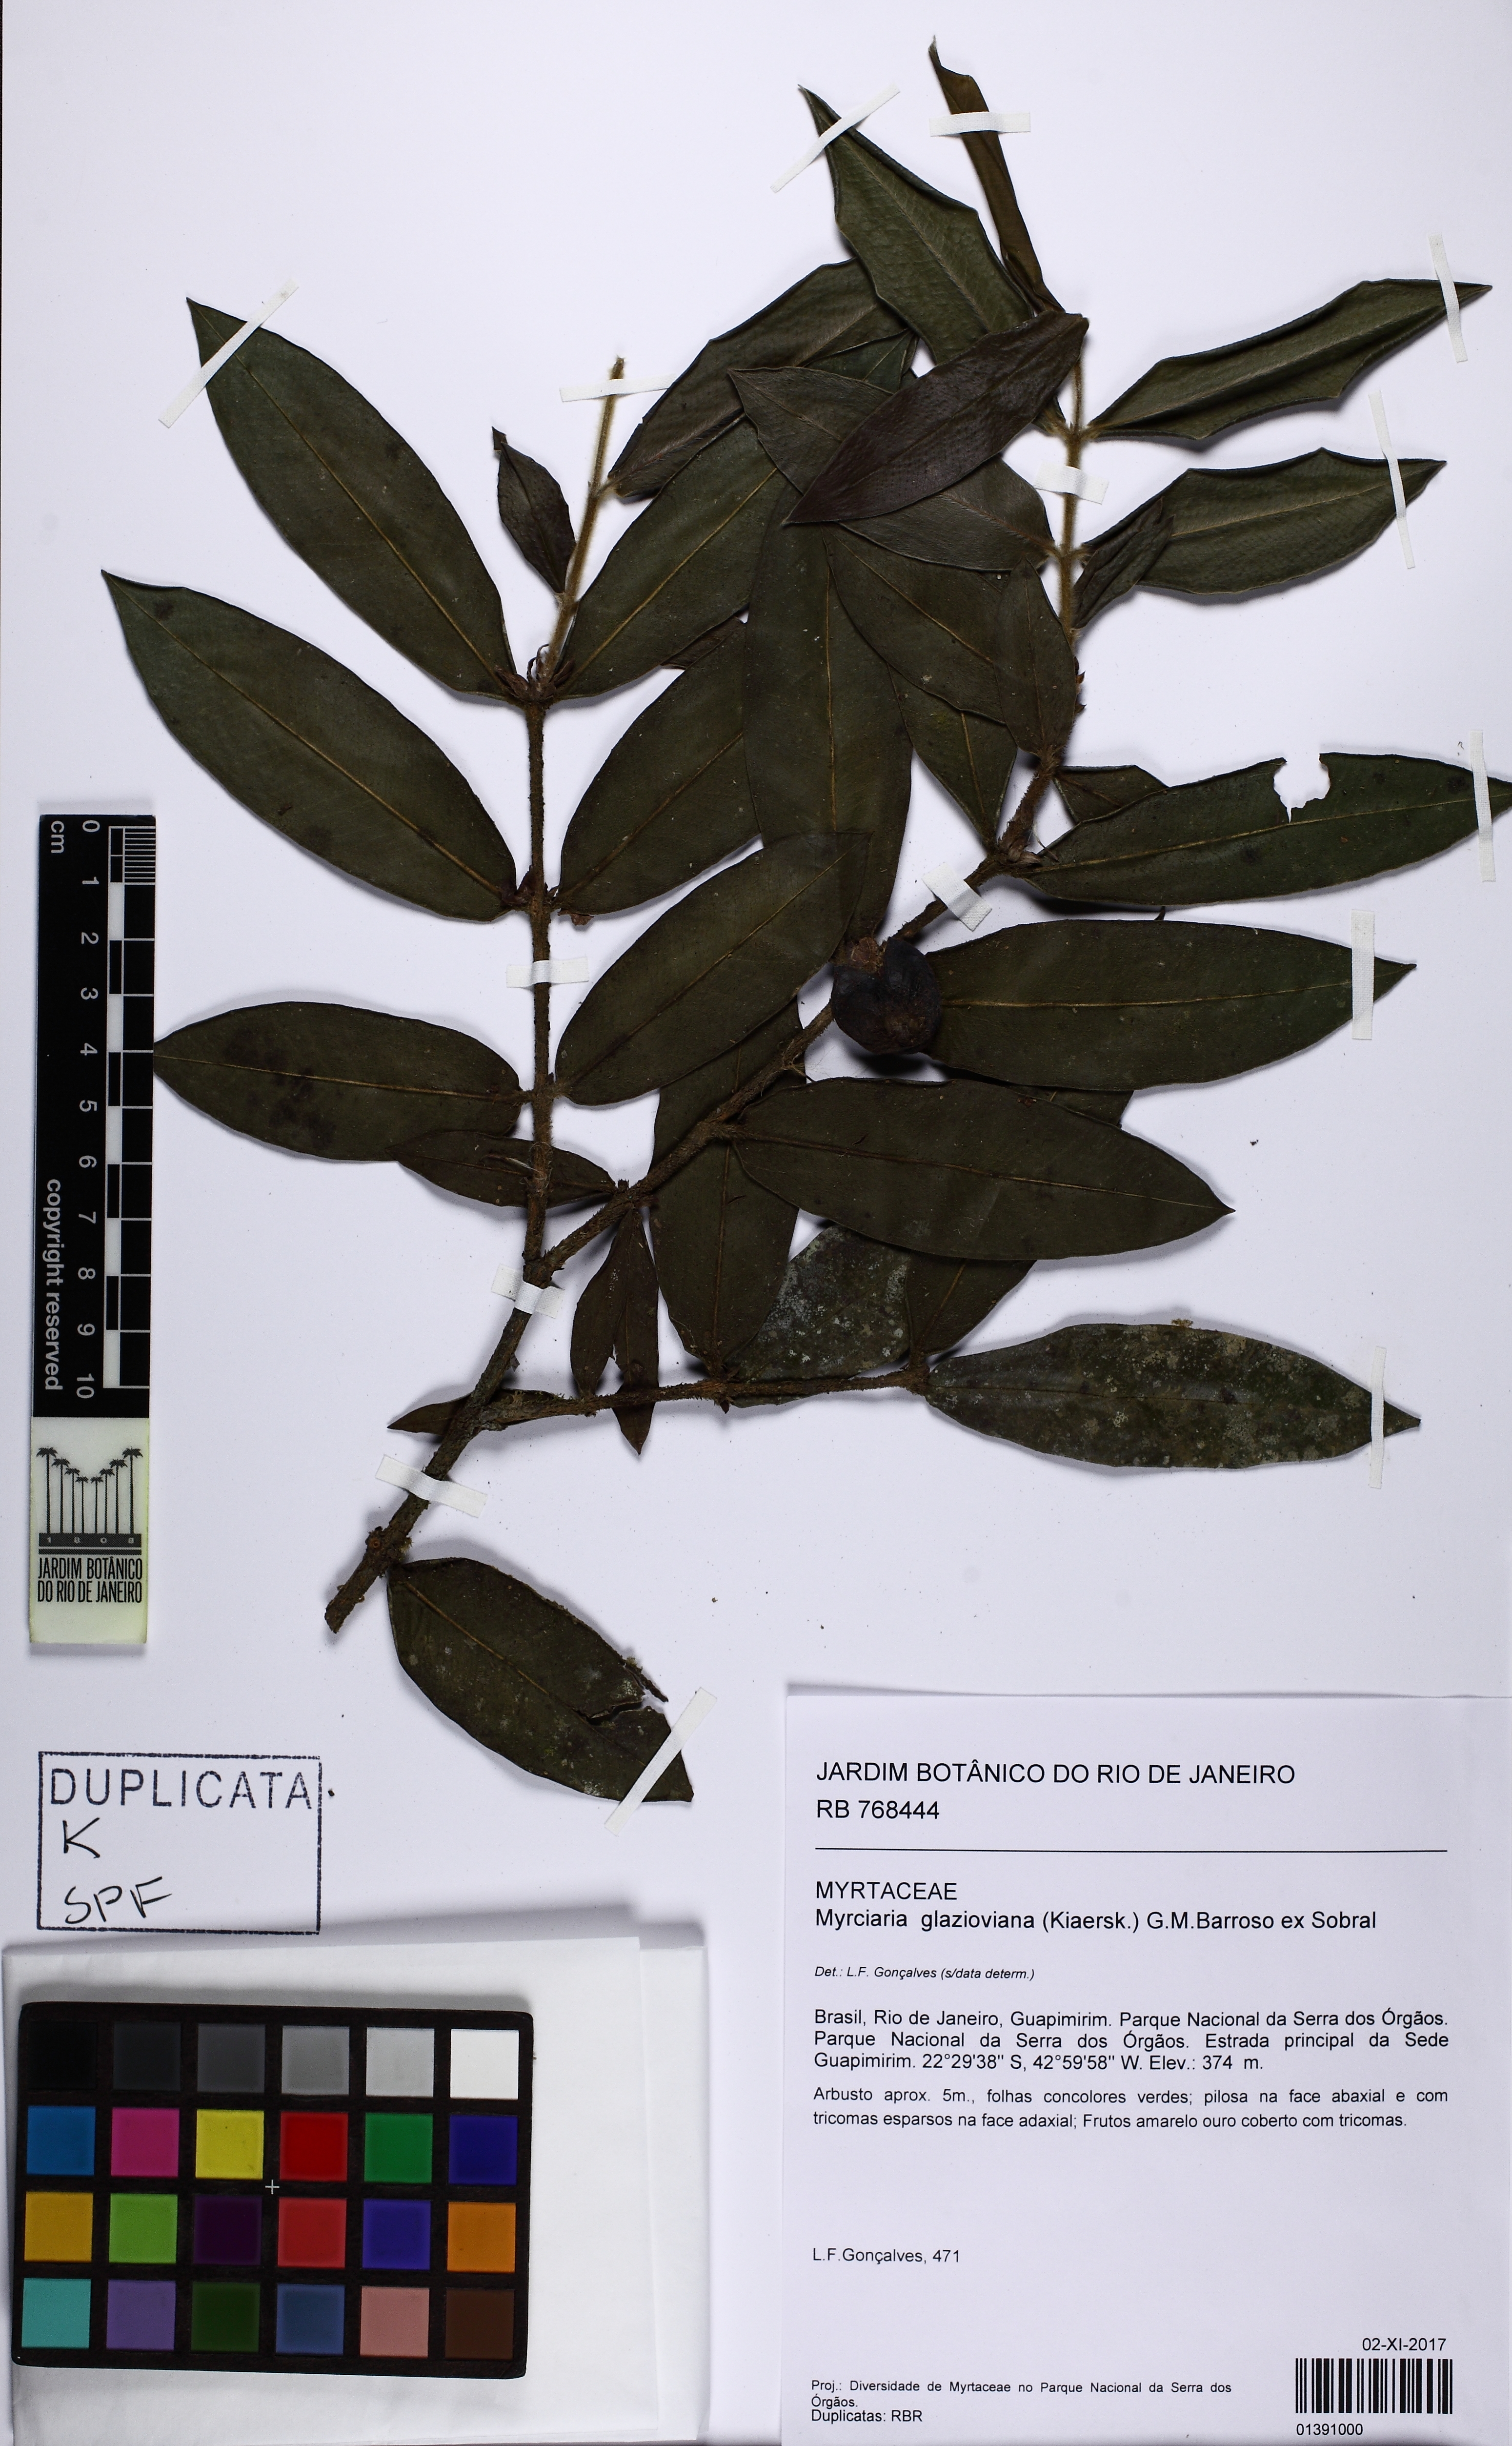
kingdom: Plantae
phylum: Tracheophyta
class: Magnoliopsida
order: Myrtales
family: Myrtaceae
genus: Myrciaria
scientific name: Myrciaria glazioviana
